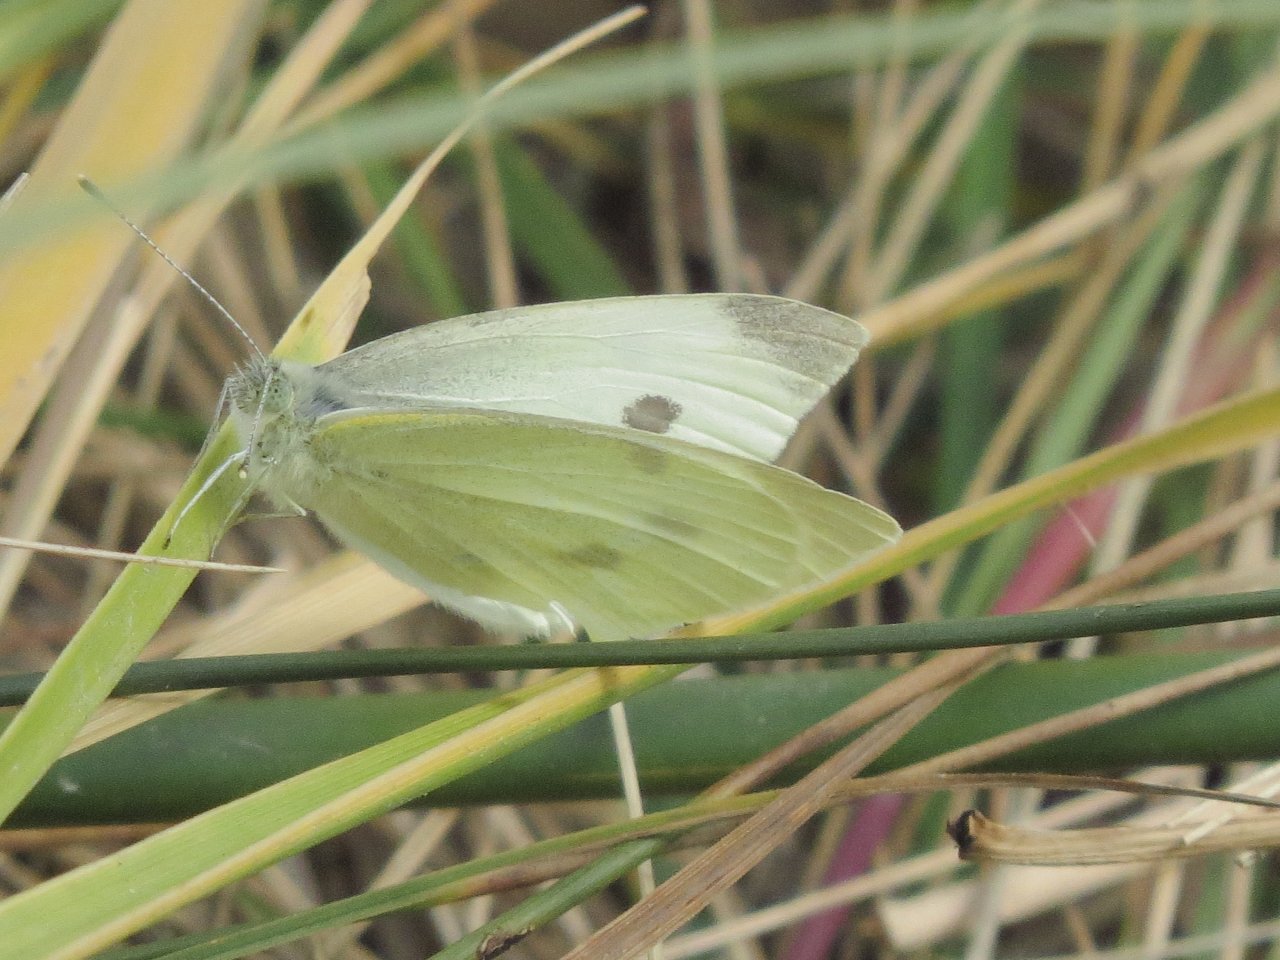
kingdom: Animalia
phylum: Arthropoda
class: Insecta
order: Lepidoptera
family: Pieridae
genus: Pieris
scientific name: Pieris rapae
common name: Cabbage White
